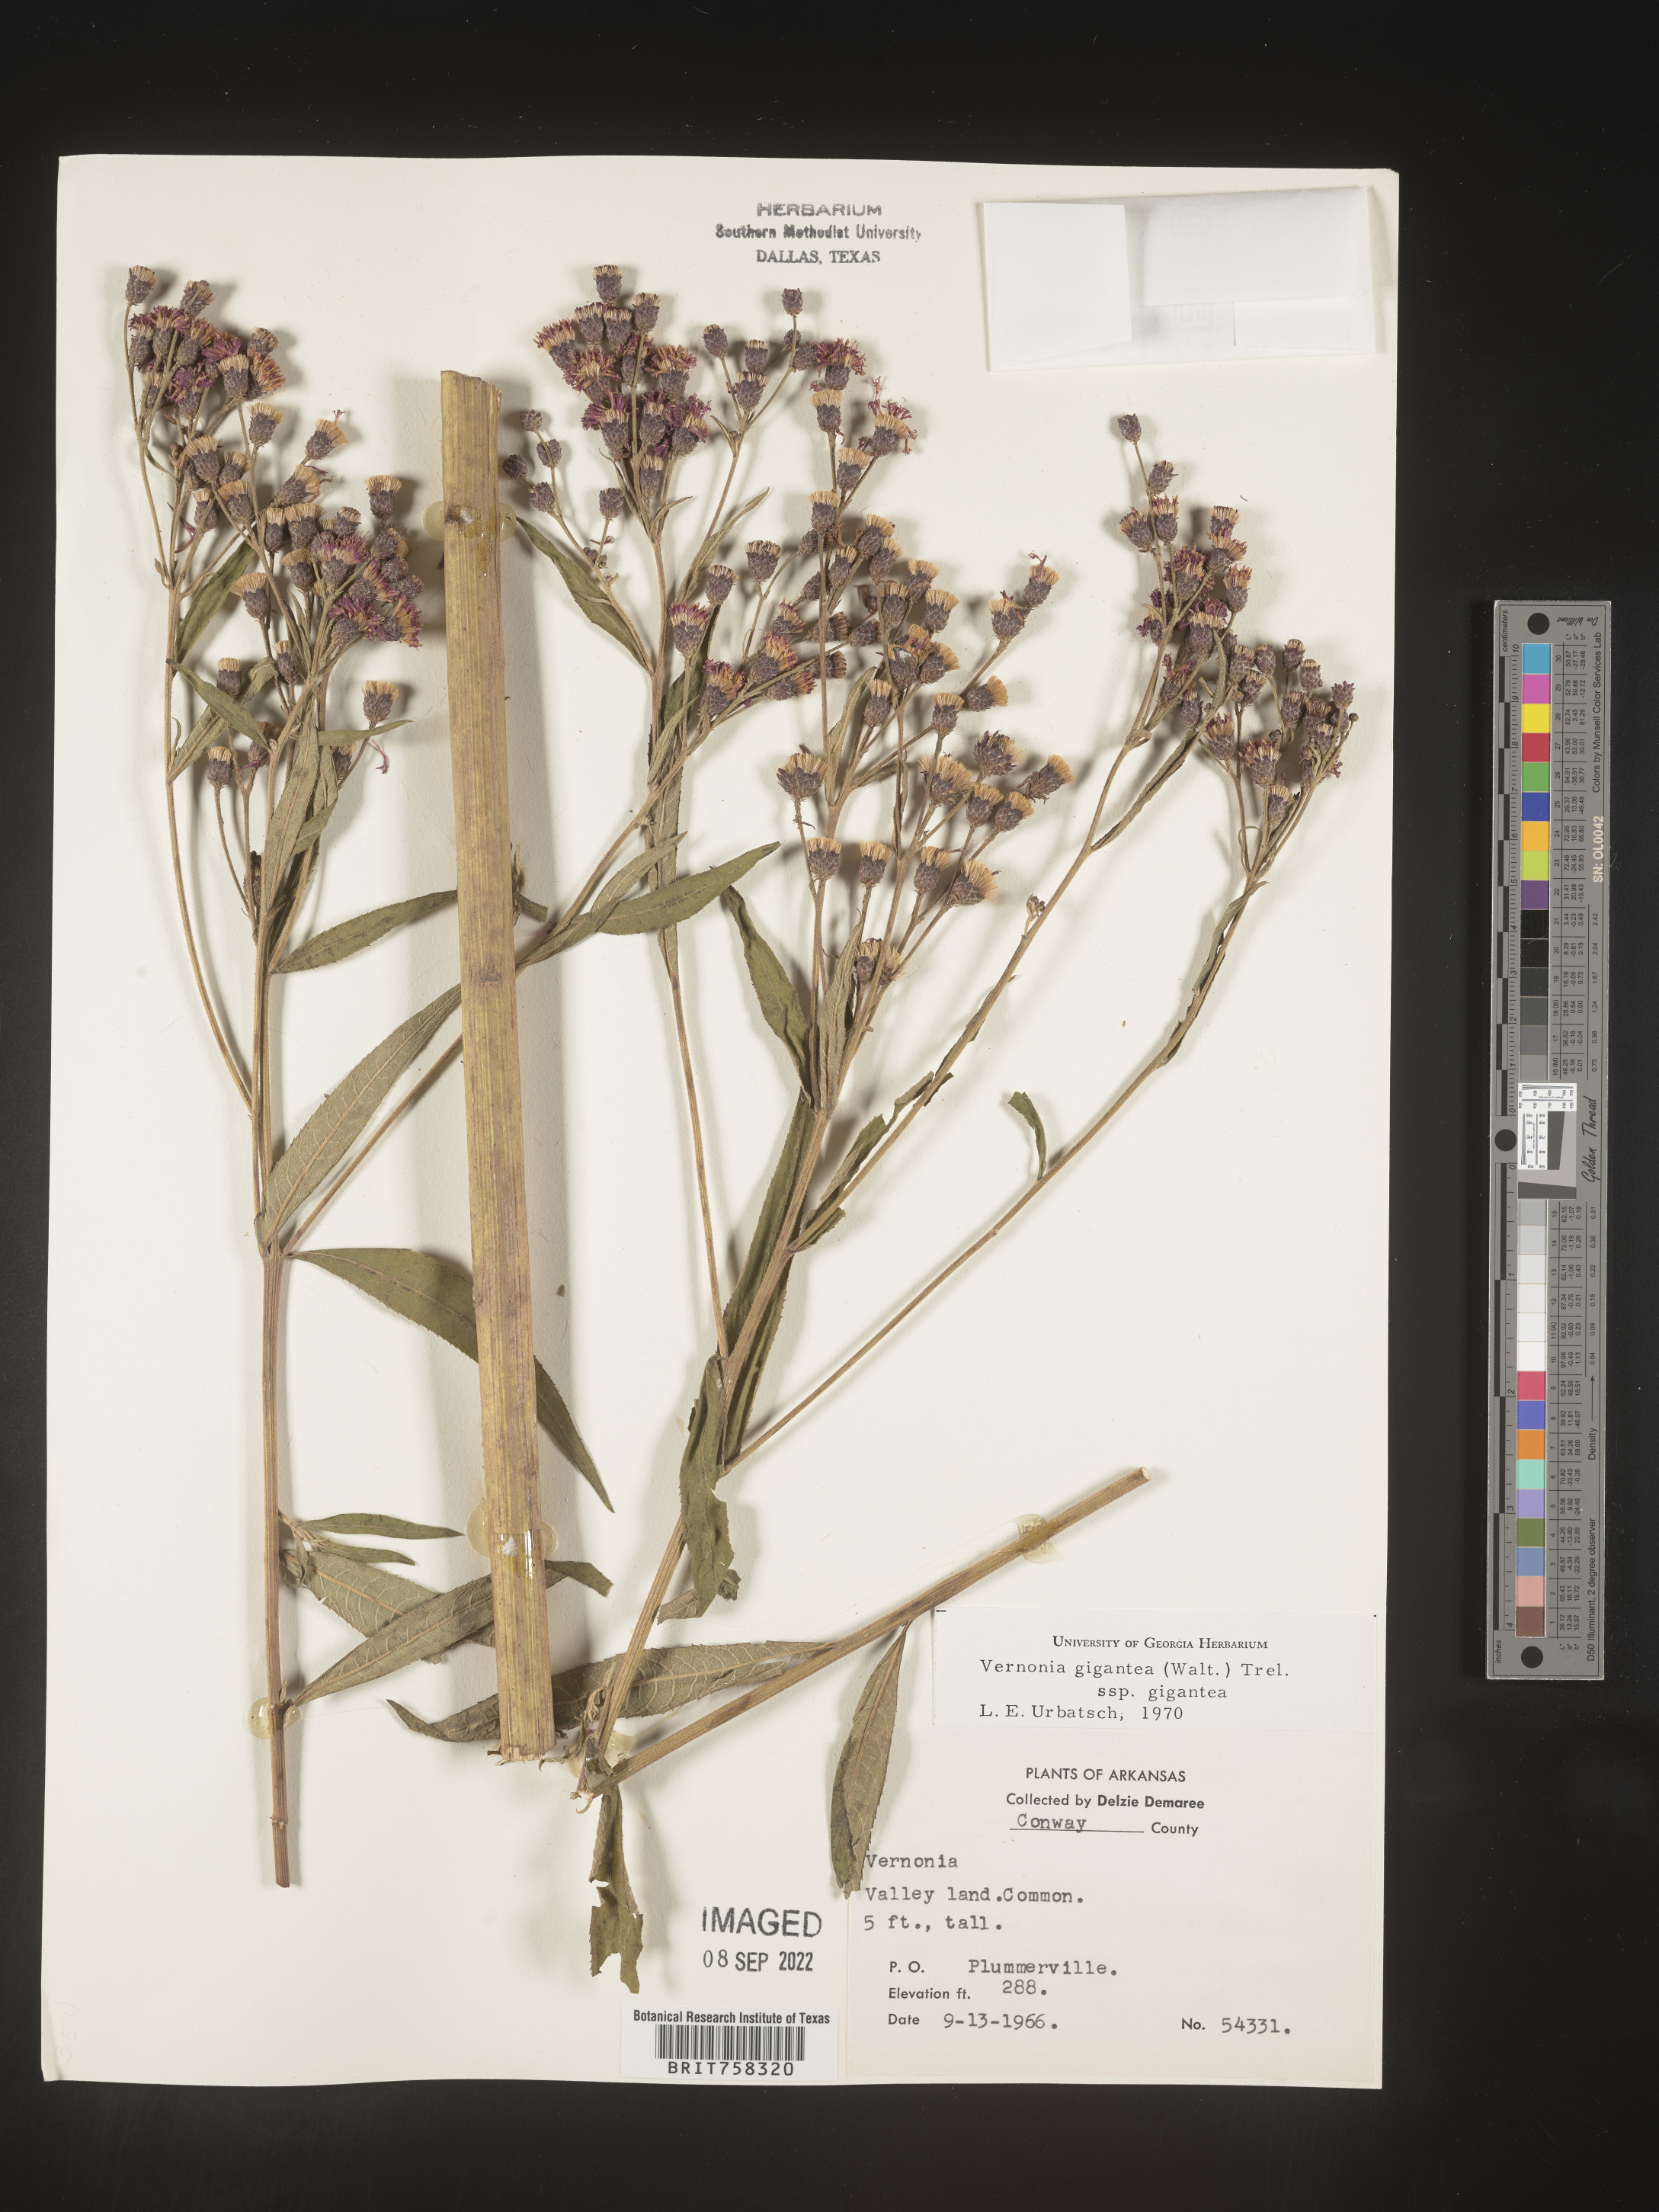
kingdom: Plantae
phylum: Tracheophyta
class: Magnoliopsida
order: Asterales
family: Asteraceae
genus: Vernonia
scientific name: Vernonia gigantea
